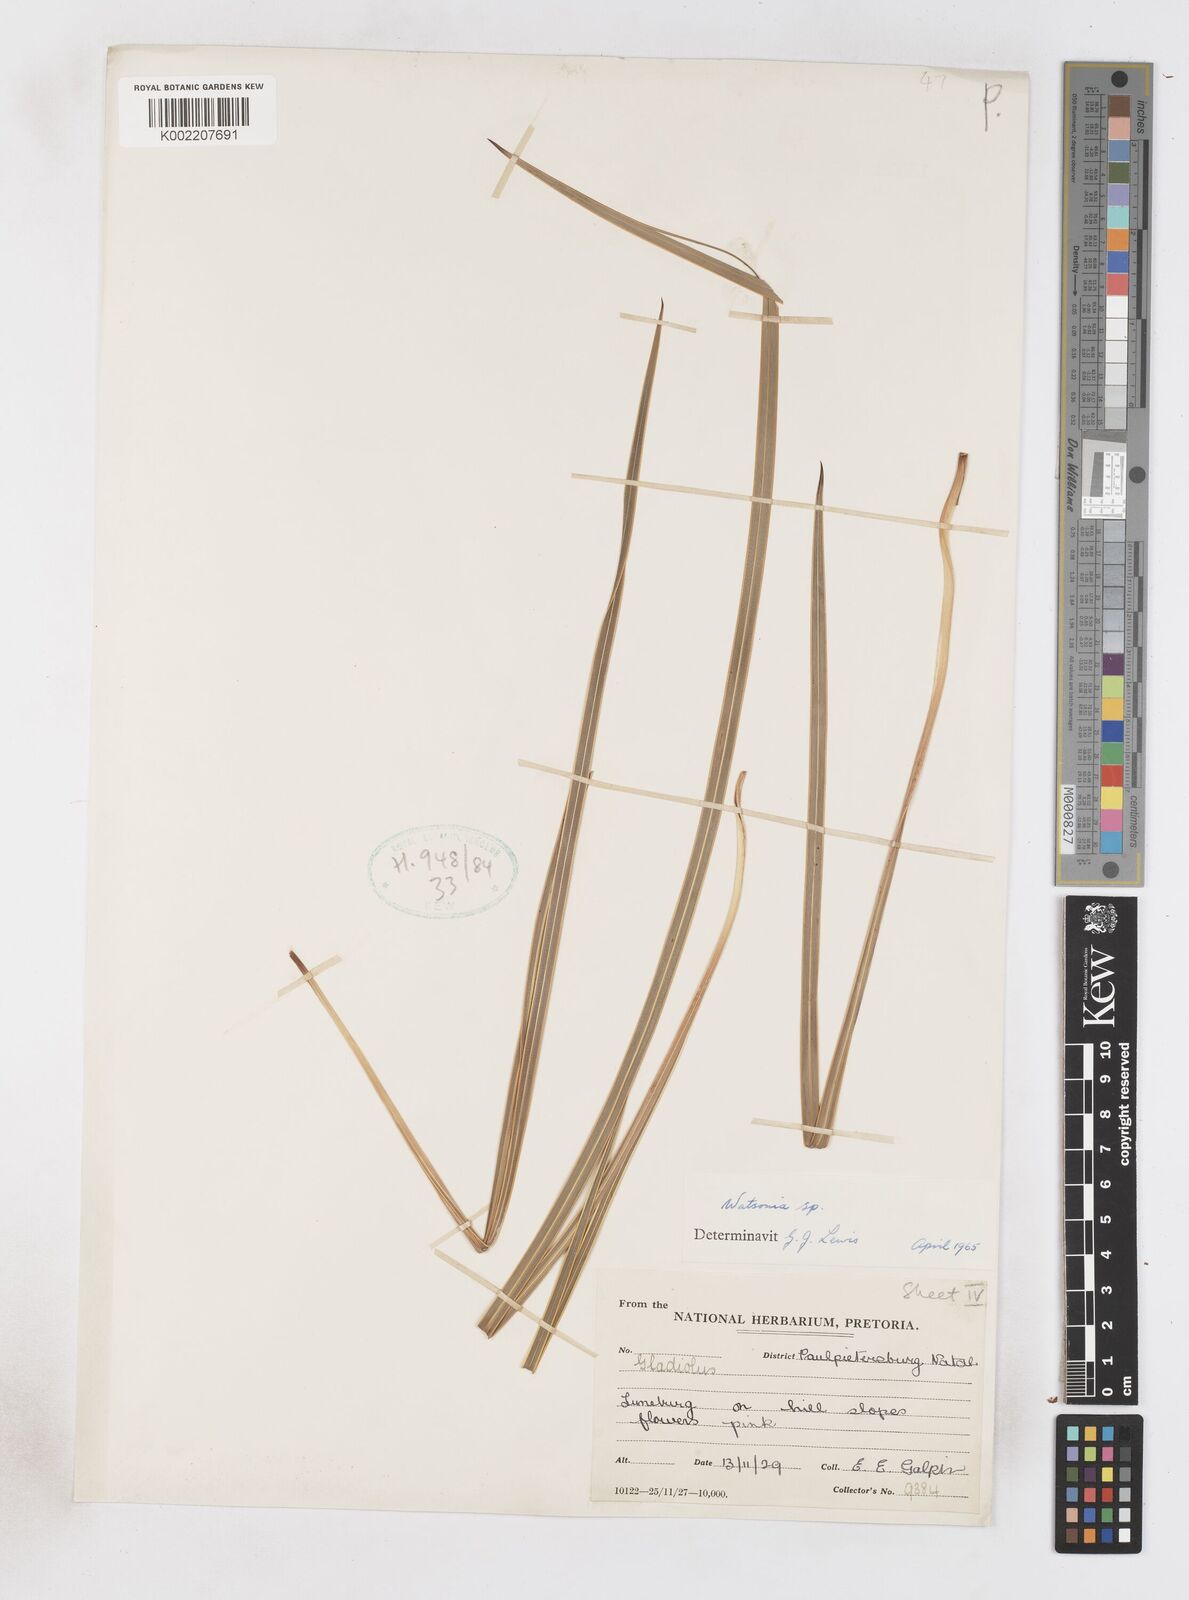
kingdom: Plantae
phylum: Tracheophyta
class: Liliopsida
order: Asparagales
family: Iridaceae
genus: Watsonia
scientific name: Watsonia
